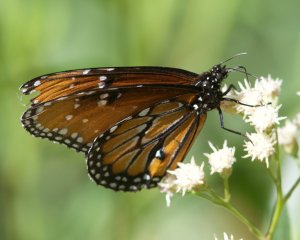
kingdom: Animalia
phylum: Arthropoda
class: Insecta
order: Lepidoptera
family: Nymphalidae
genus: Danaus
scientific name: Danaus gilippus
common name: Queen
